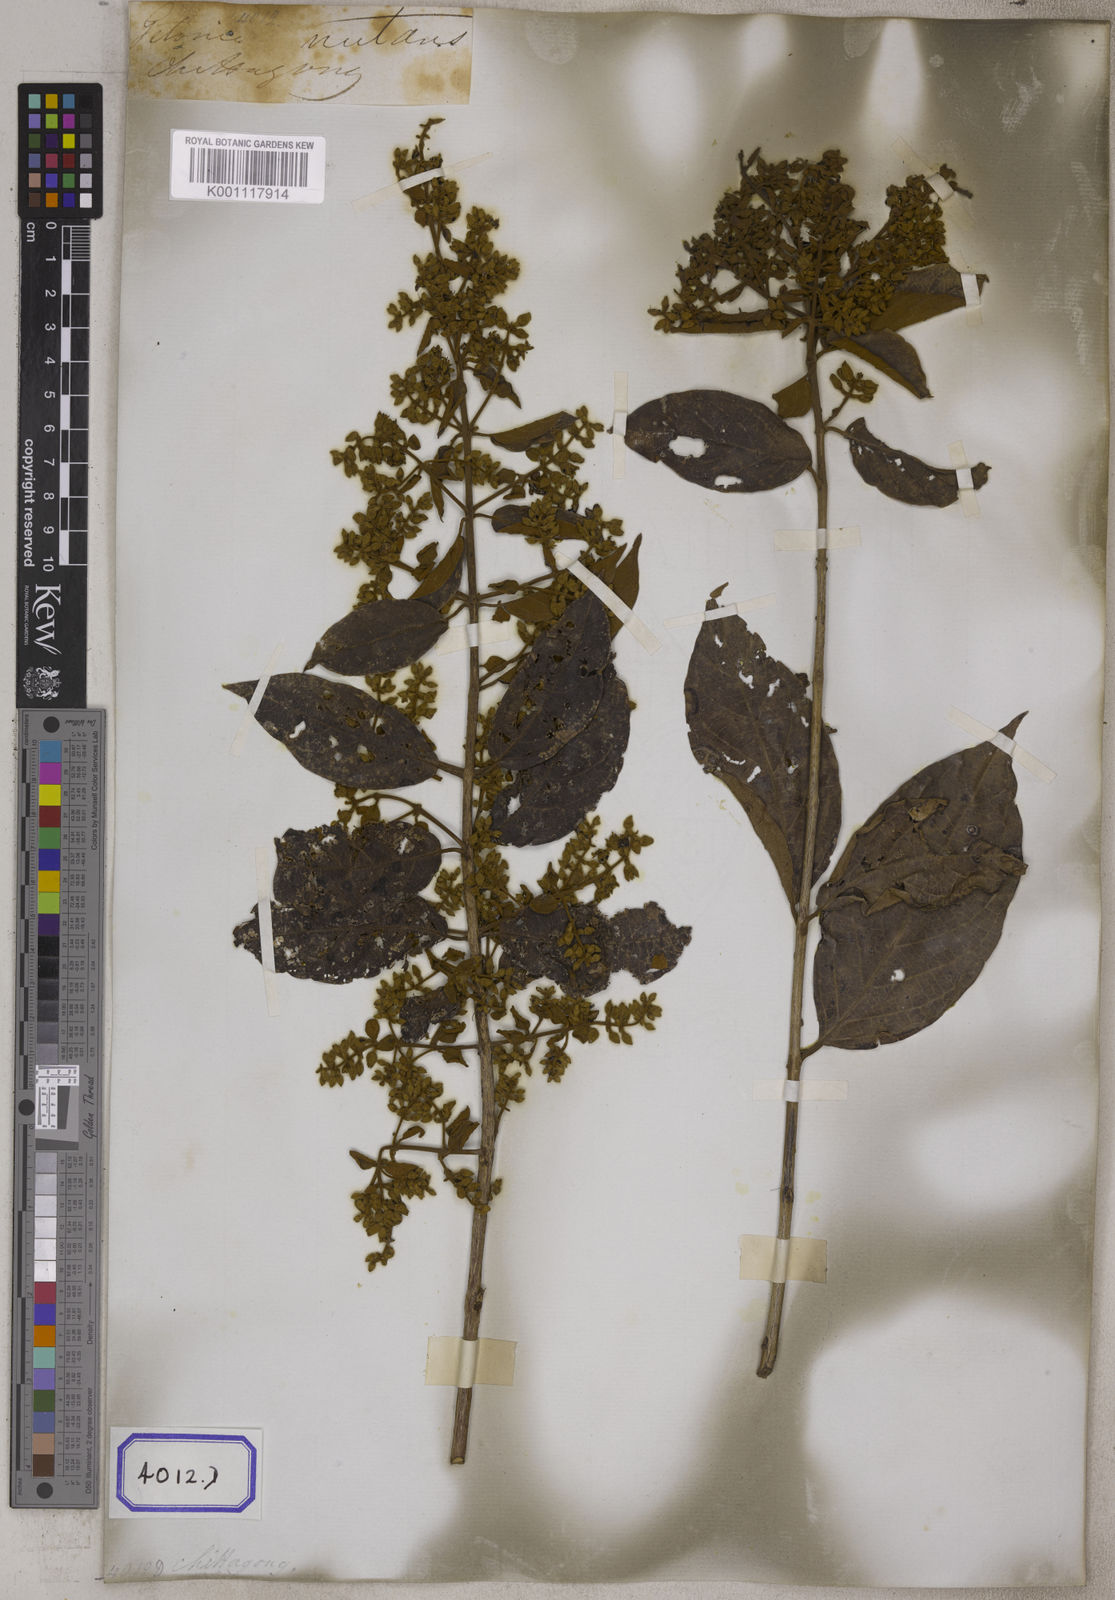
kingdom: Plantae
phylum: Tracheophyta
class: Magnoliopsida
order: Myrtales
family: Combretaceae
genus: Getonia
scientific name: Getonia floribunda
